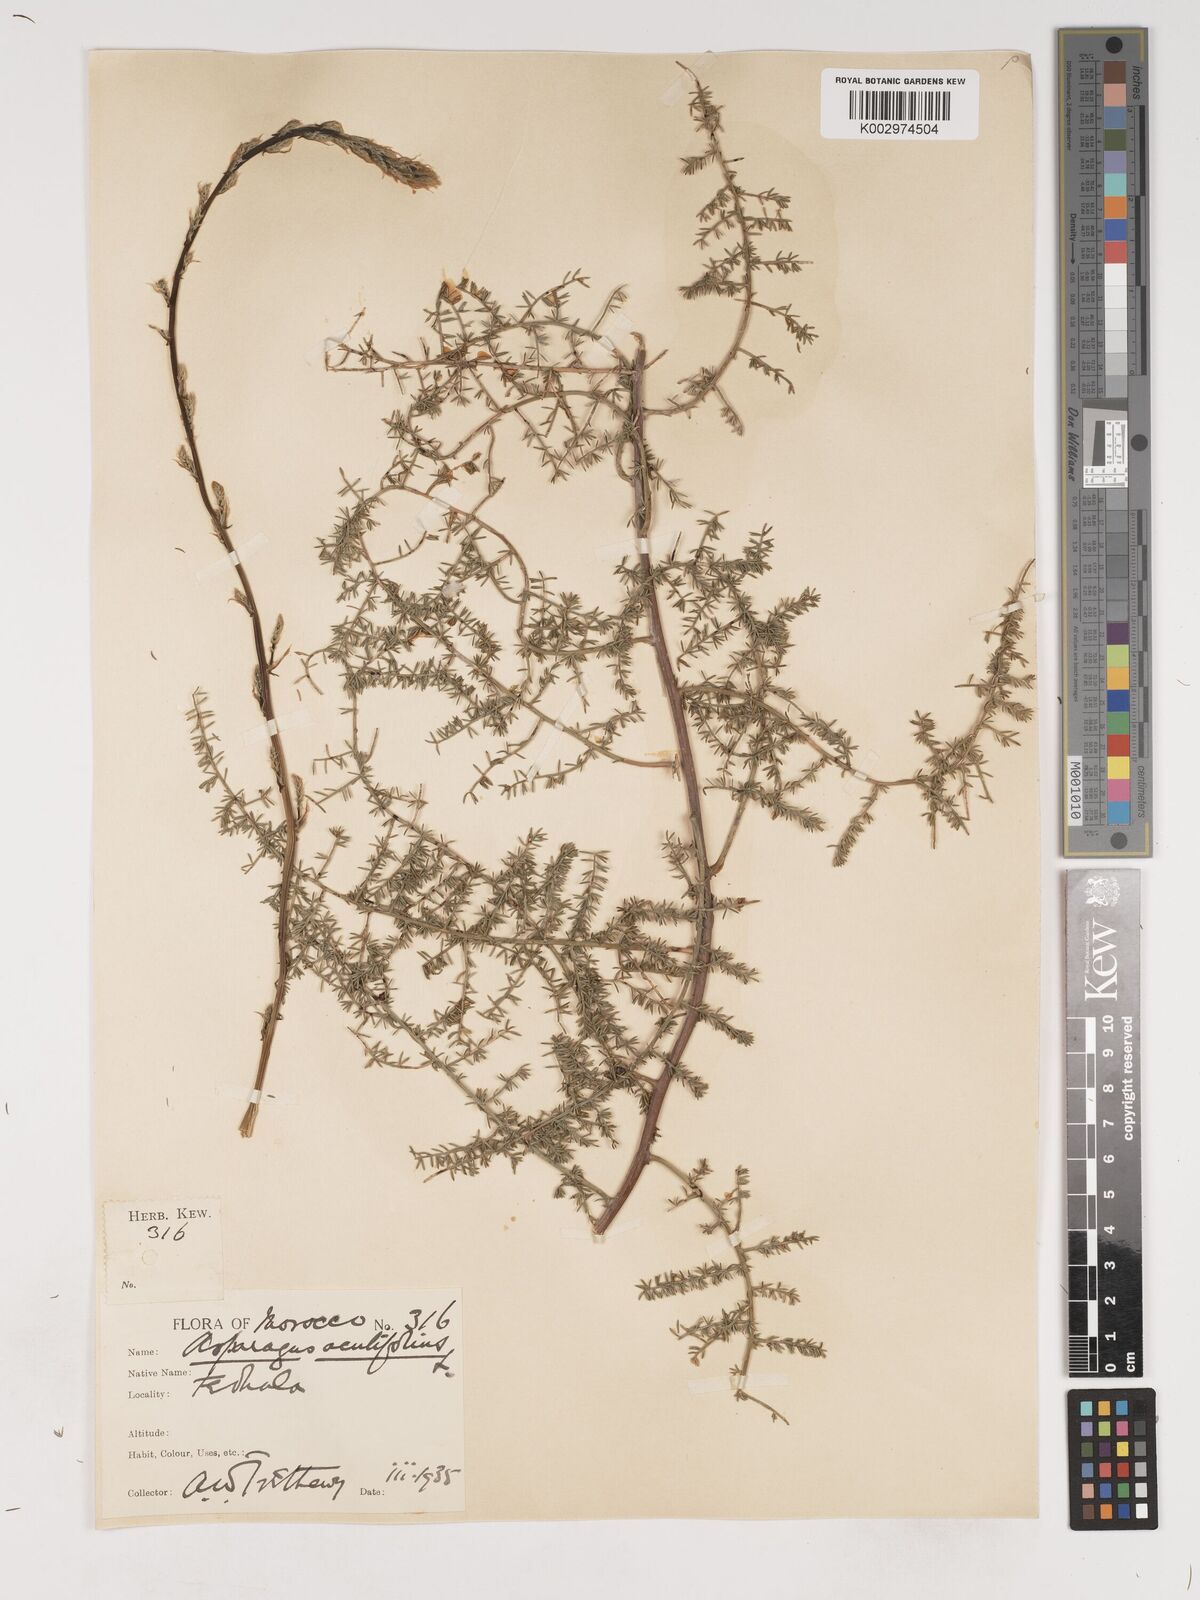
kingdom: Plantae
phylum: Tracheophyta
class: Liliopsida
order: Asparagales
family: Asparagaceae
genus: Asparagus
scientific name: Asparagus acutifolius
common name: Wild asparagus
